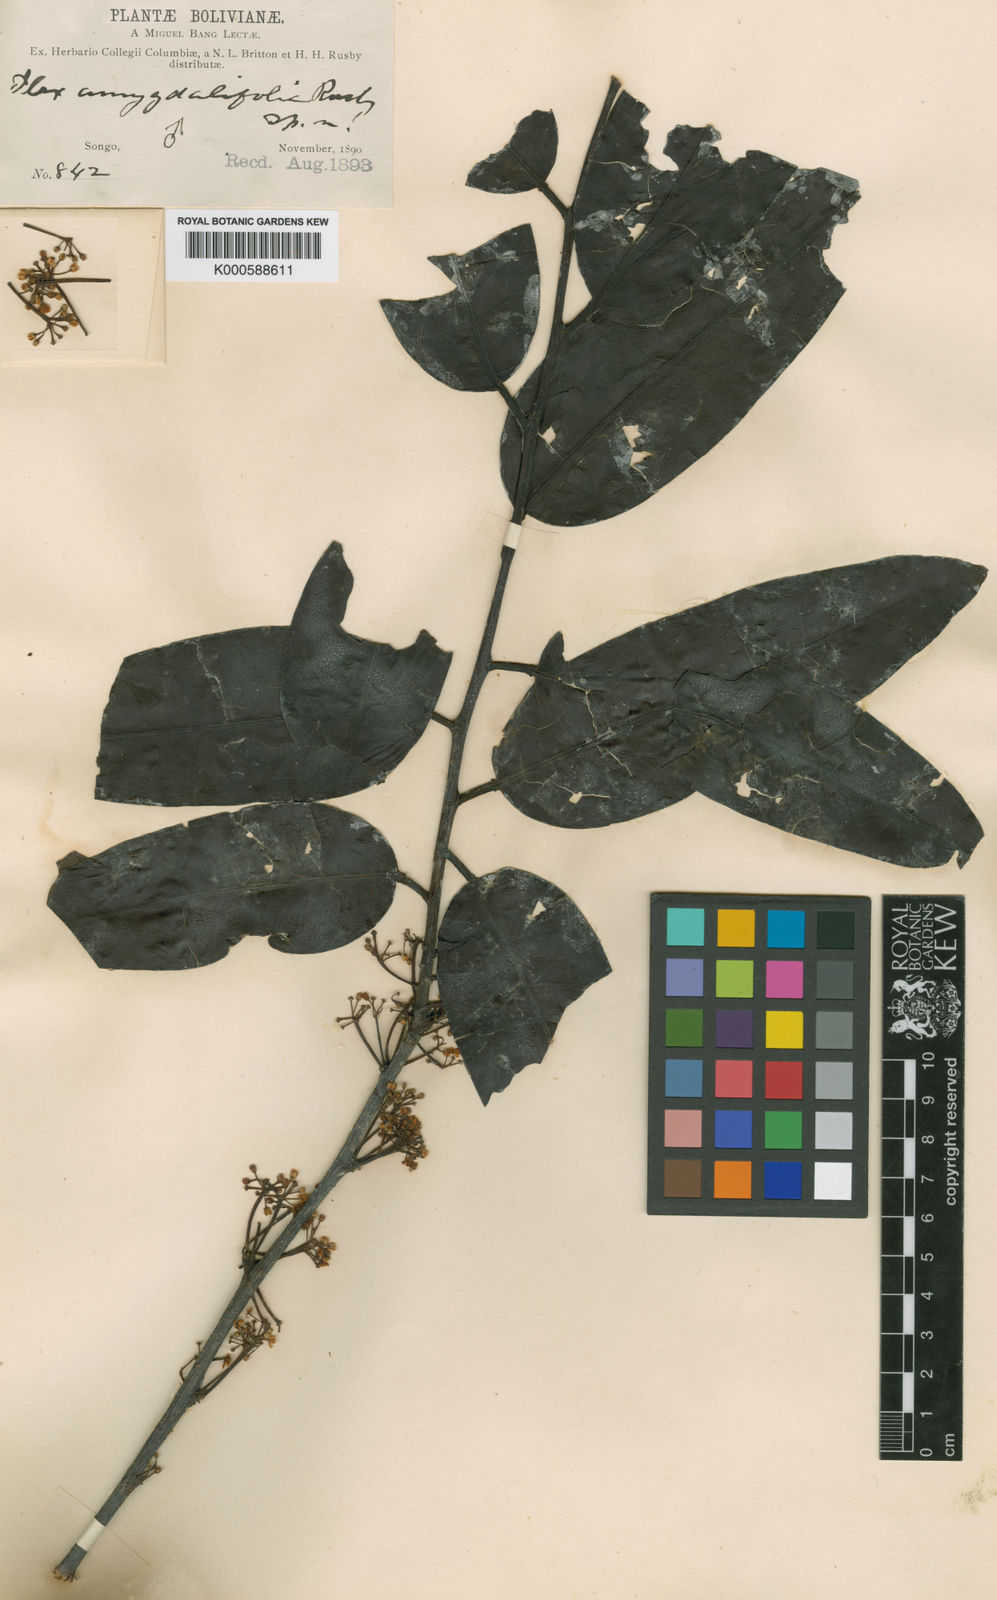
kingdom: Plantae
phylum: Tracheophyta
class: Magnoliopsida
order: Aquifoliales
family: Aquifoliaceae
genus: Ilex
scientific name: Ilex aggregata
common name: Clustered holly
